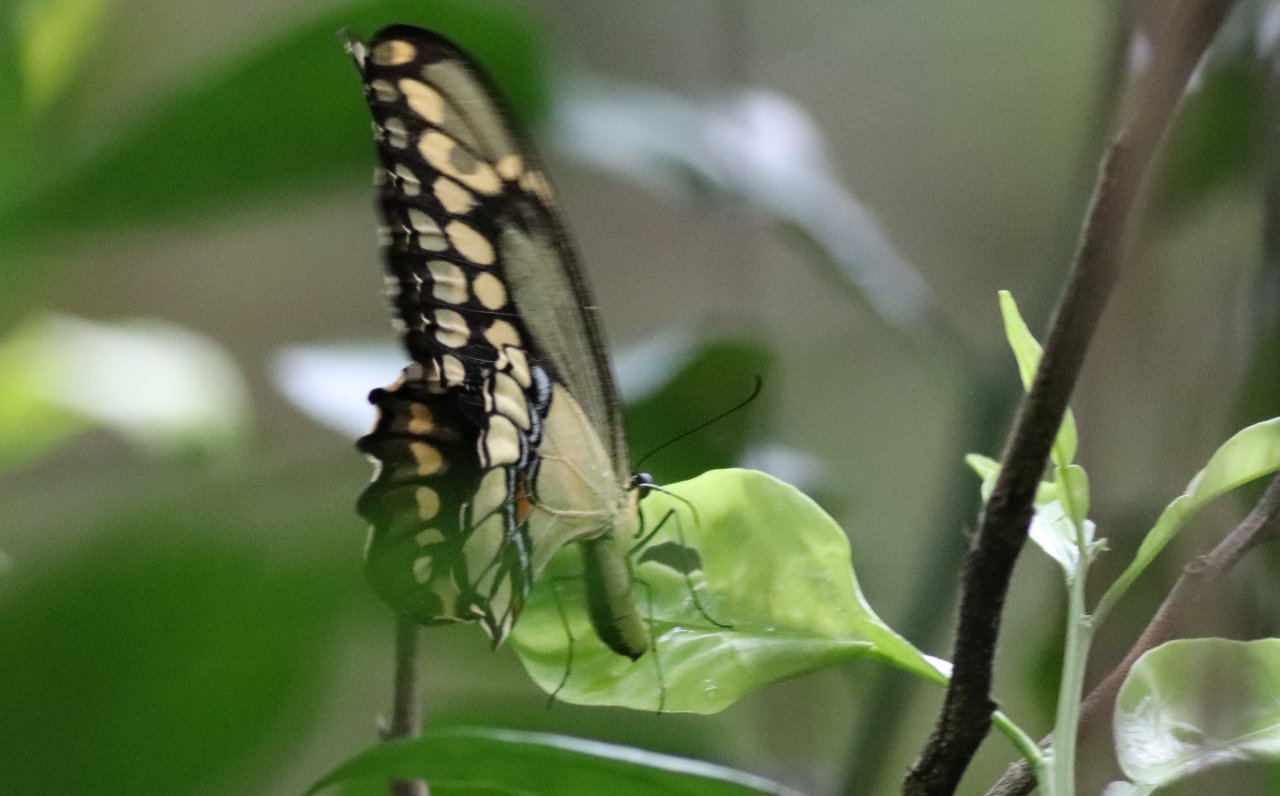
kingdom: Animalia
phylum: Arthropoda
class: Insecta
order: Lepidoptera
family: Papilionidae
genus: Papilio
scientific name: Papilio cresphontes
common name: Eastern Giant Swallowtail
